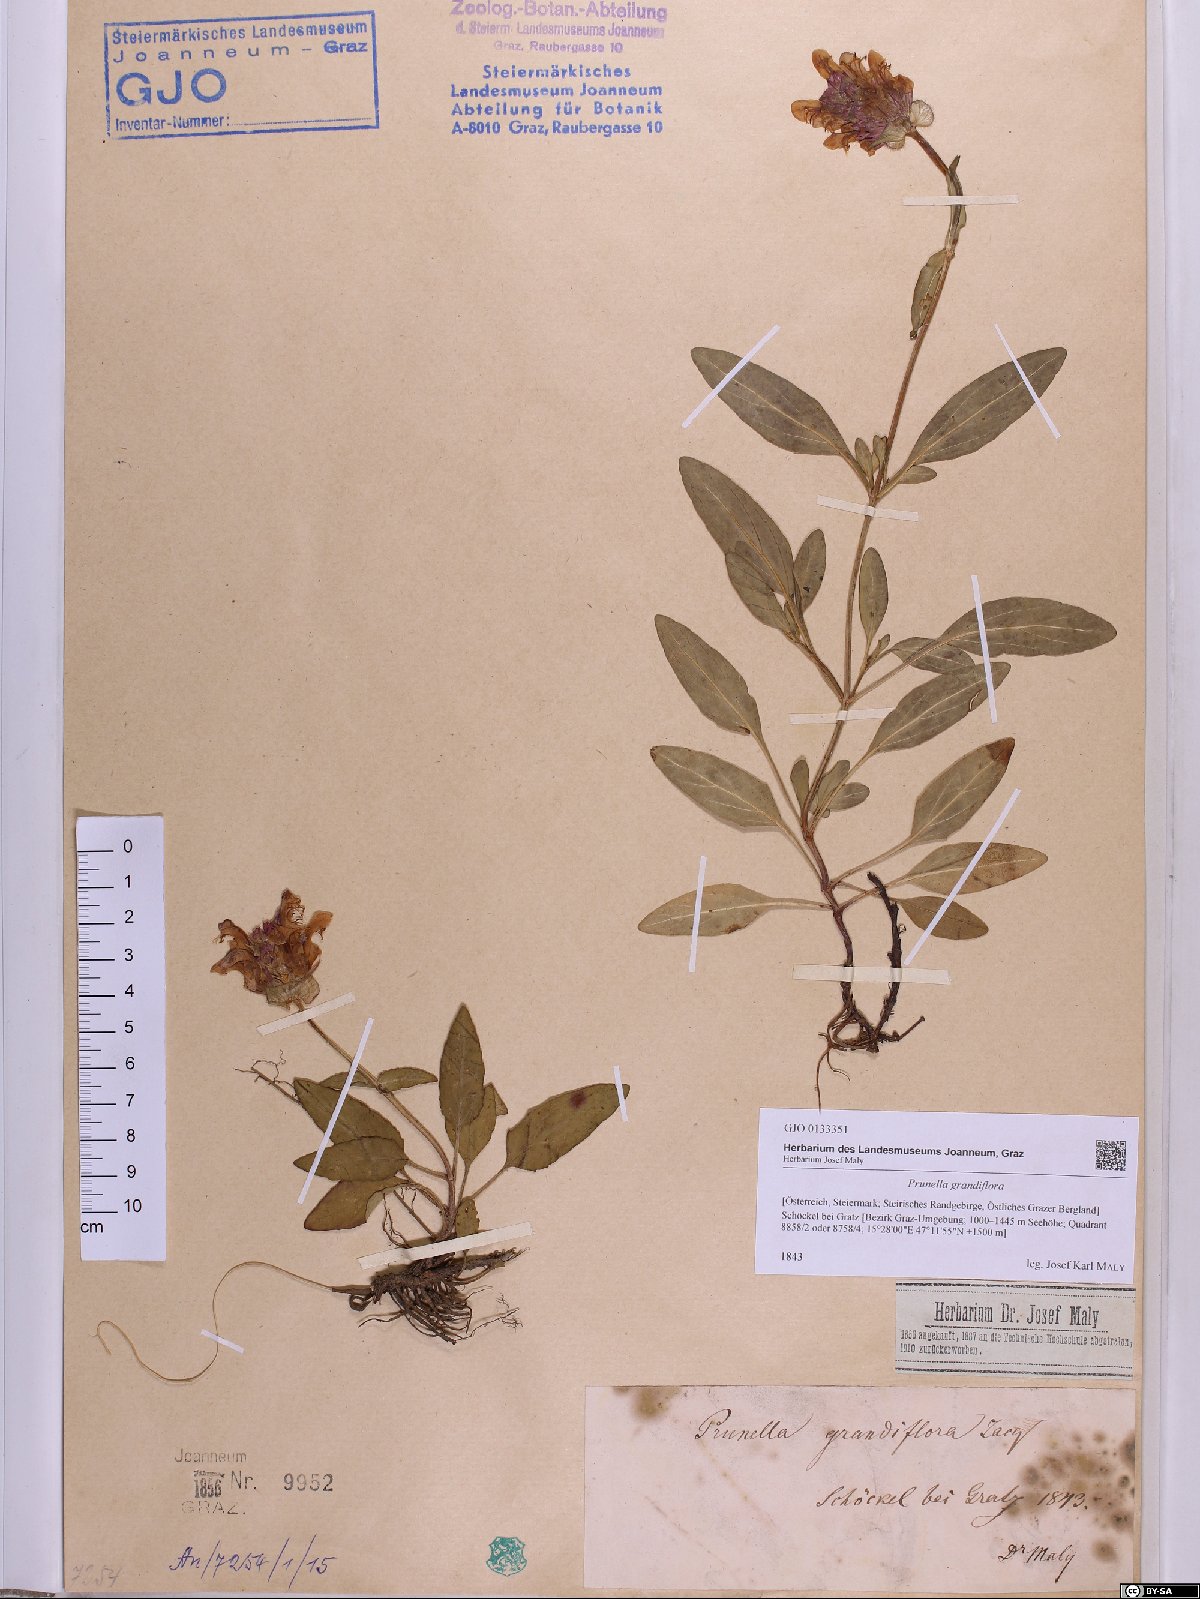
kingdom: Plantae
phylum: Tracheophyta
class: Magnoliopsida
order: Lamiales
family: Lamiaceae
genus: Prunella
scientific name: Prunella grandiflora
